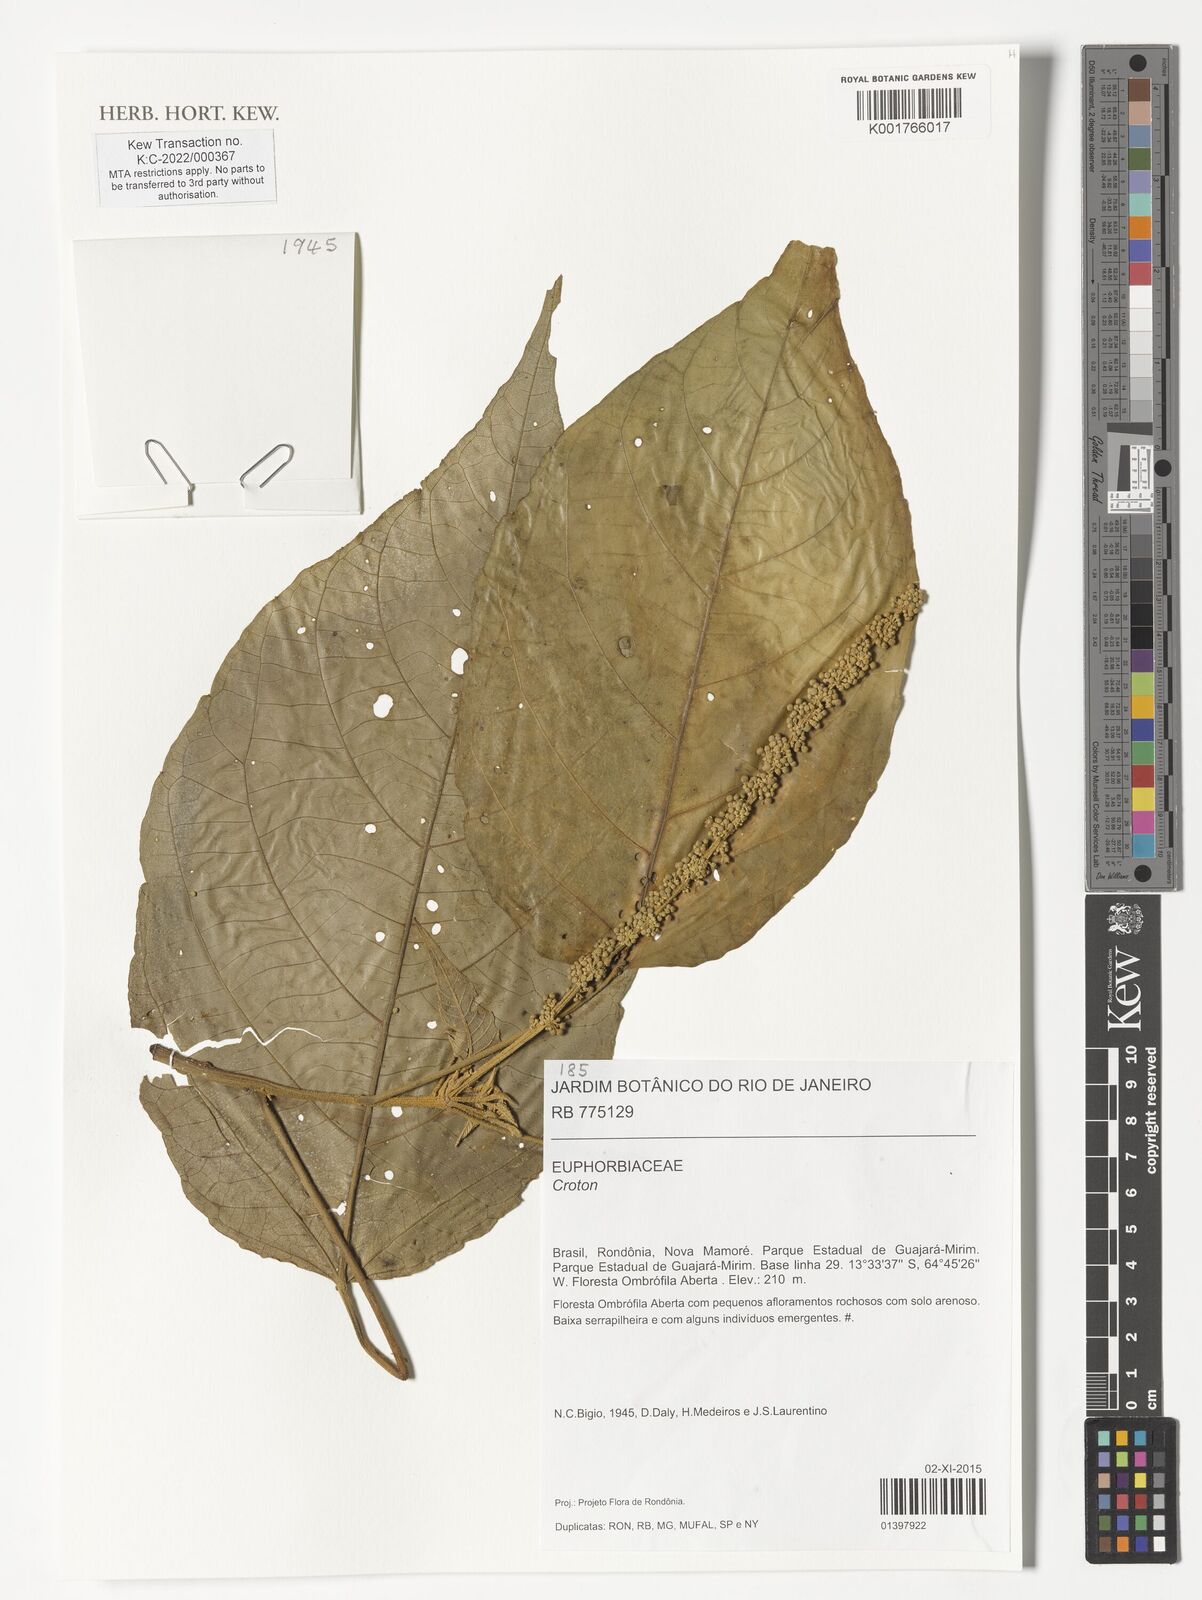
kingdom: Plantae
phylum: Tracheophyta
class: Magnoliopsida
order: Malpighiales
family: Euphorbiaceae
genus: Croton
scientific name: Croton
